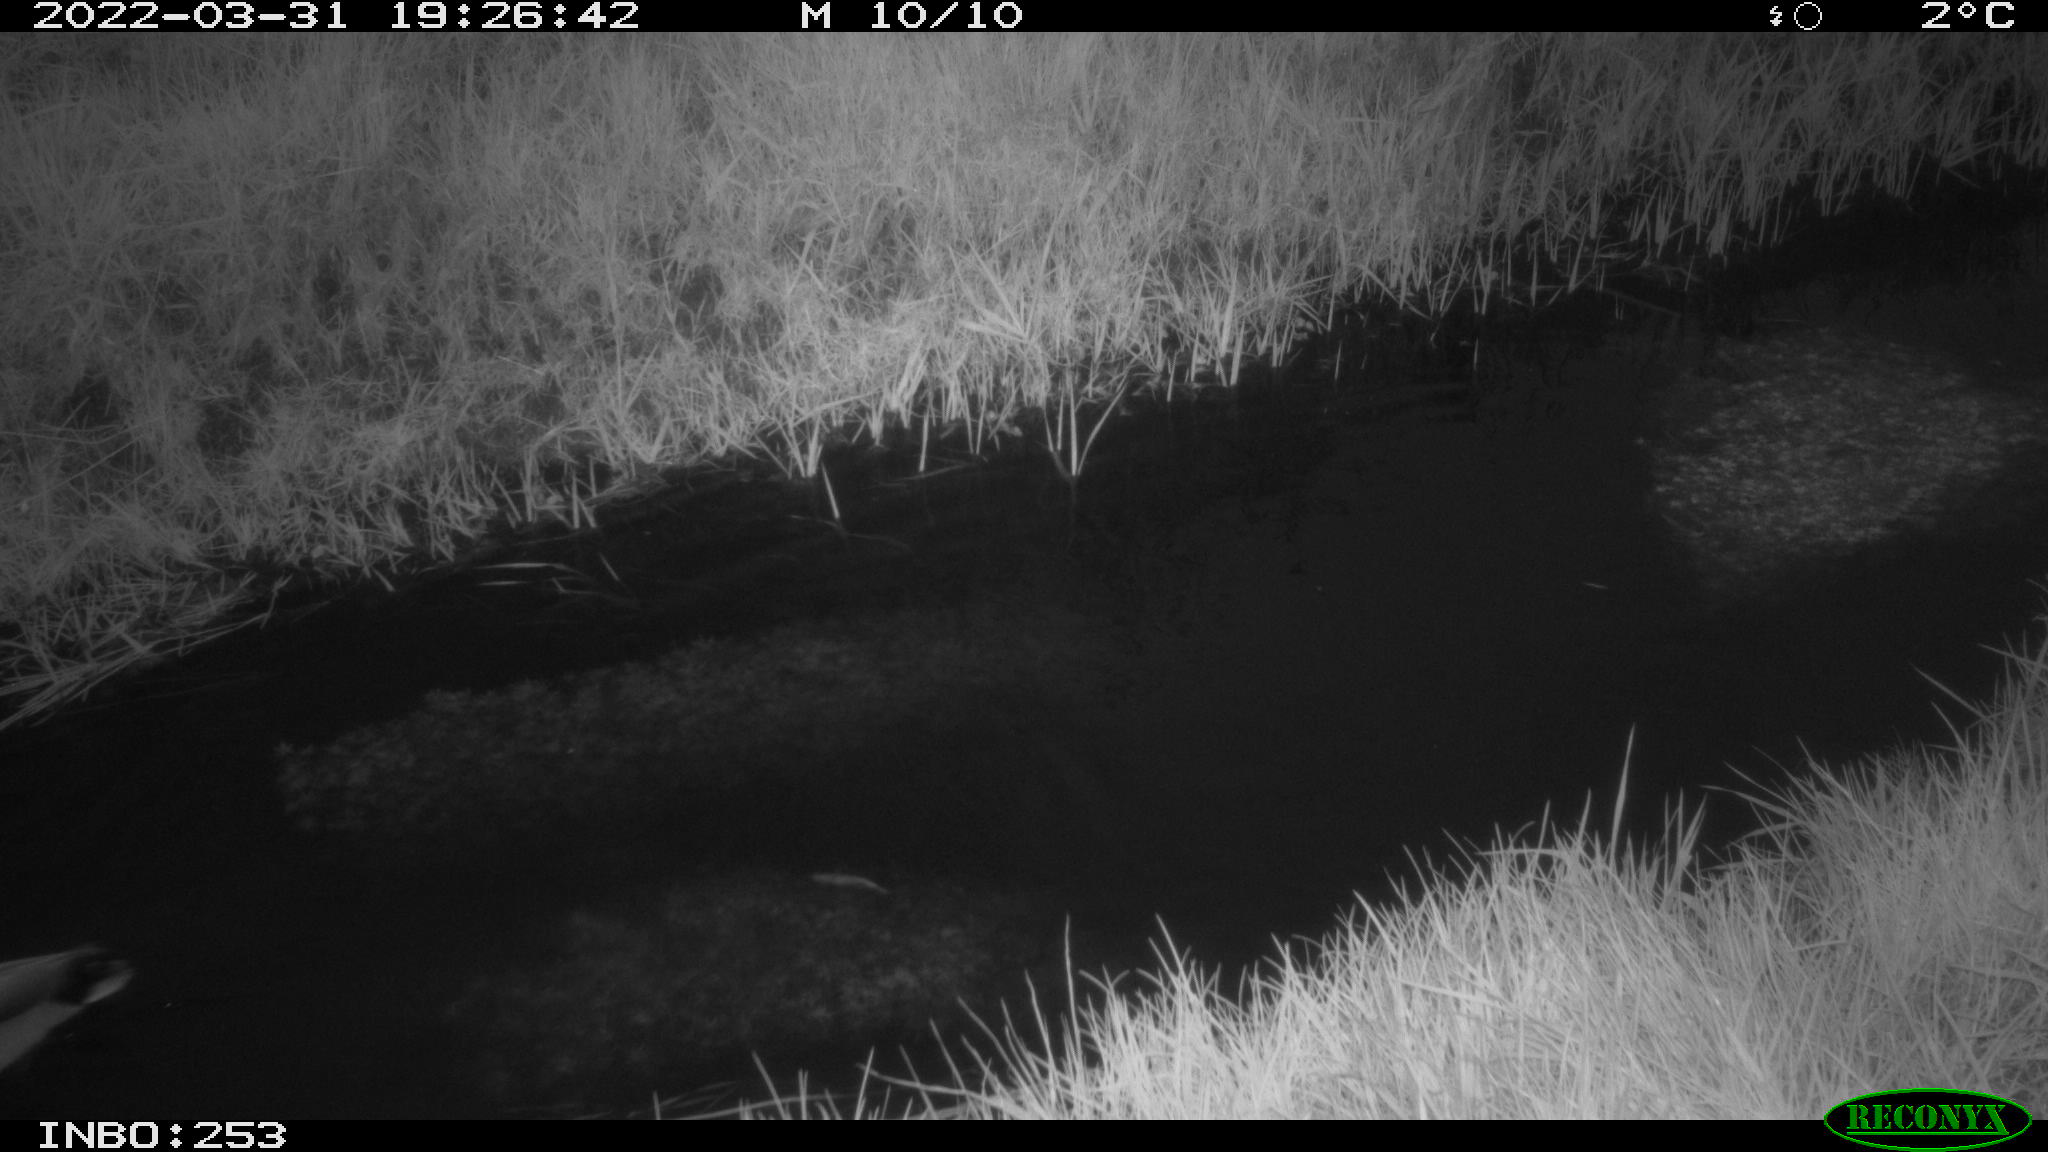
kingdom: Animalia
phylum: Chordata
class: Aves
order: Anseriformes
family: Anatidae
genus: Anas
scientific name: Anas platyrhynchos
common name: Mallard
